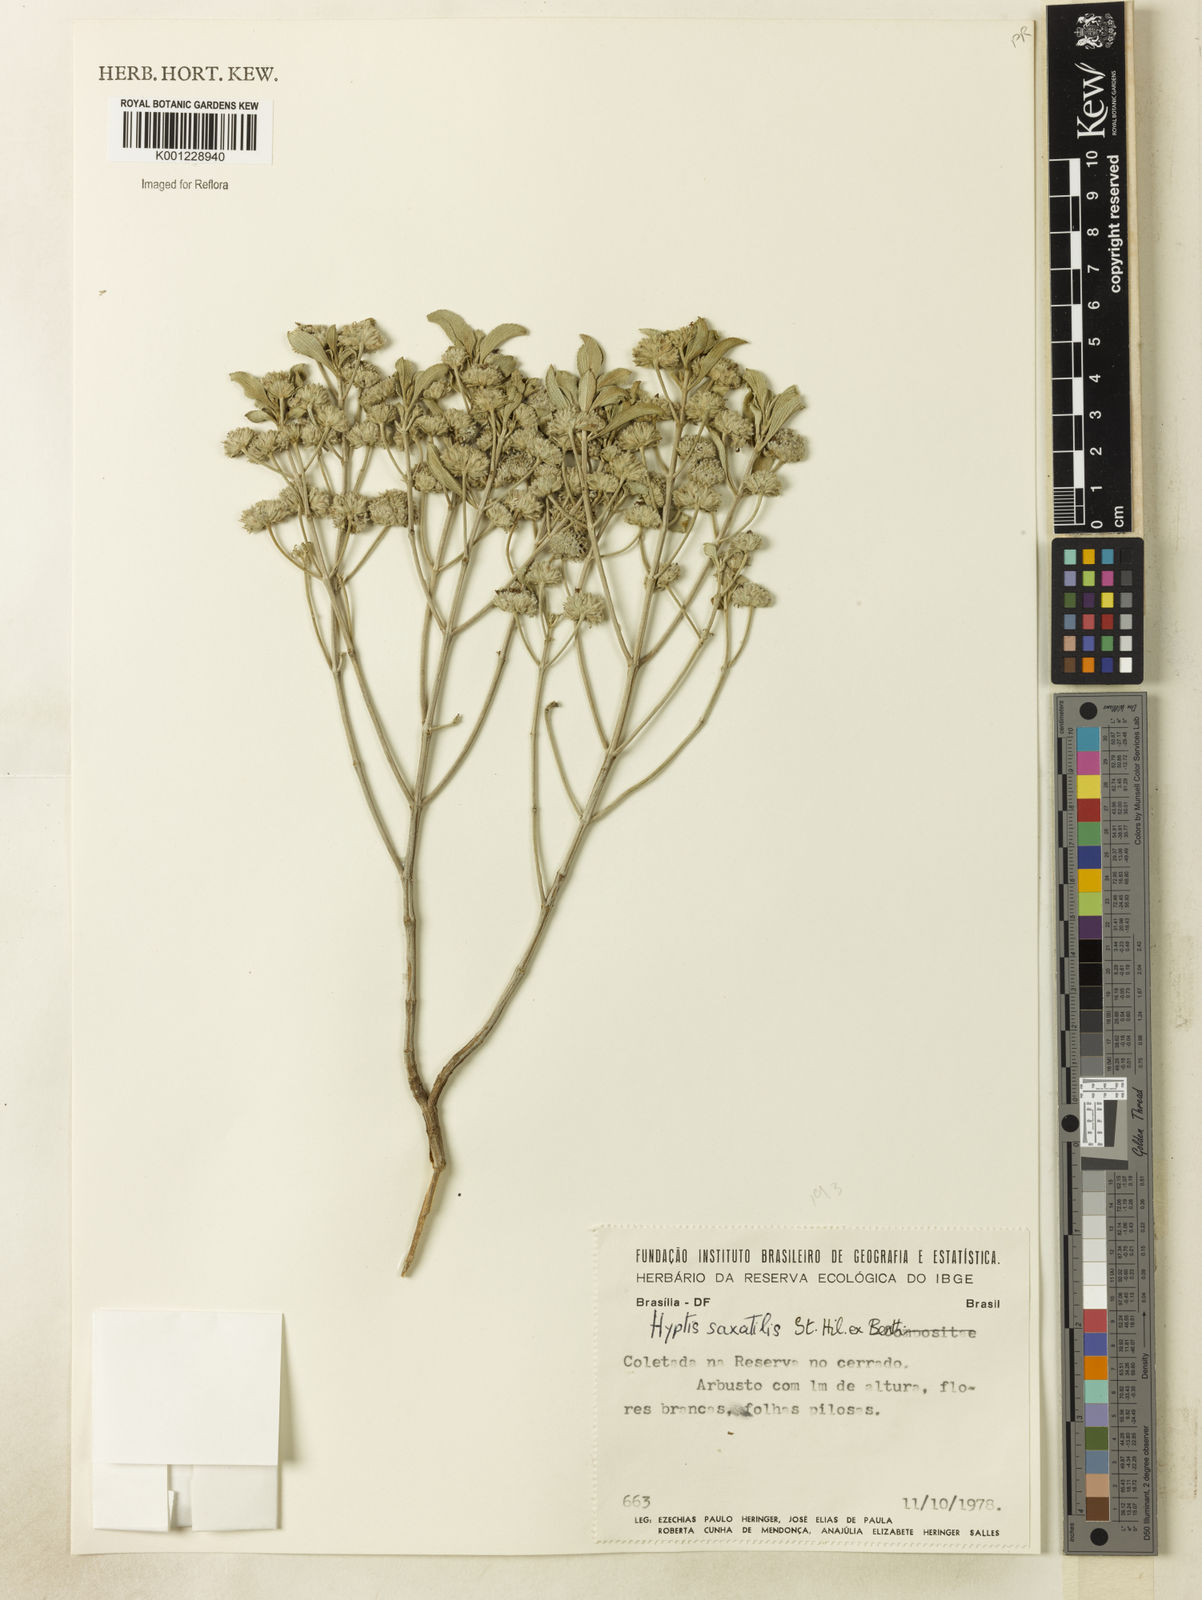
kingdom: Plantae
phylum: Tracheophyta
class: Magnoliopsida
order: Lamiales
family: Lamiaceae
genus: Hyptis
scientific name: Hyptis saxatilis
